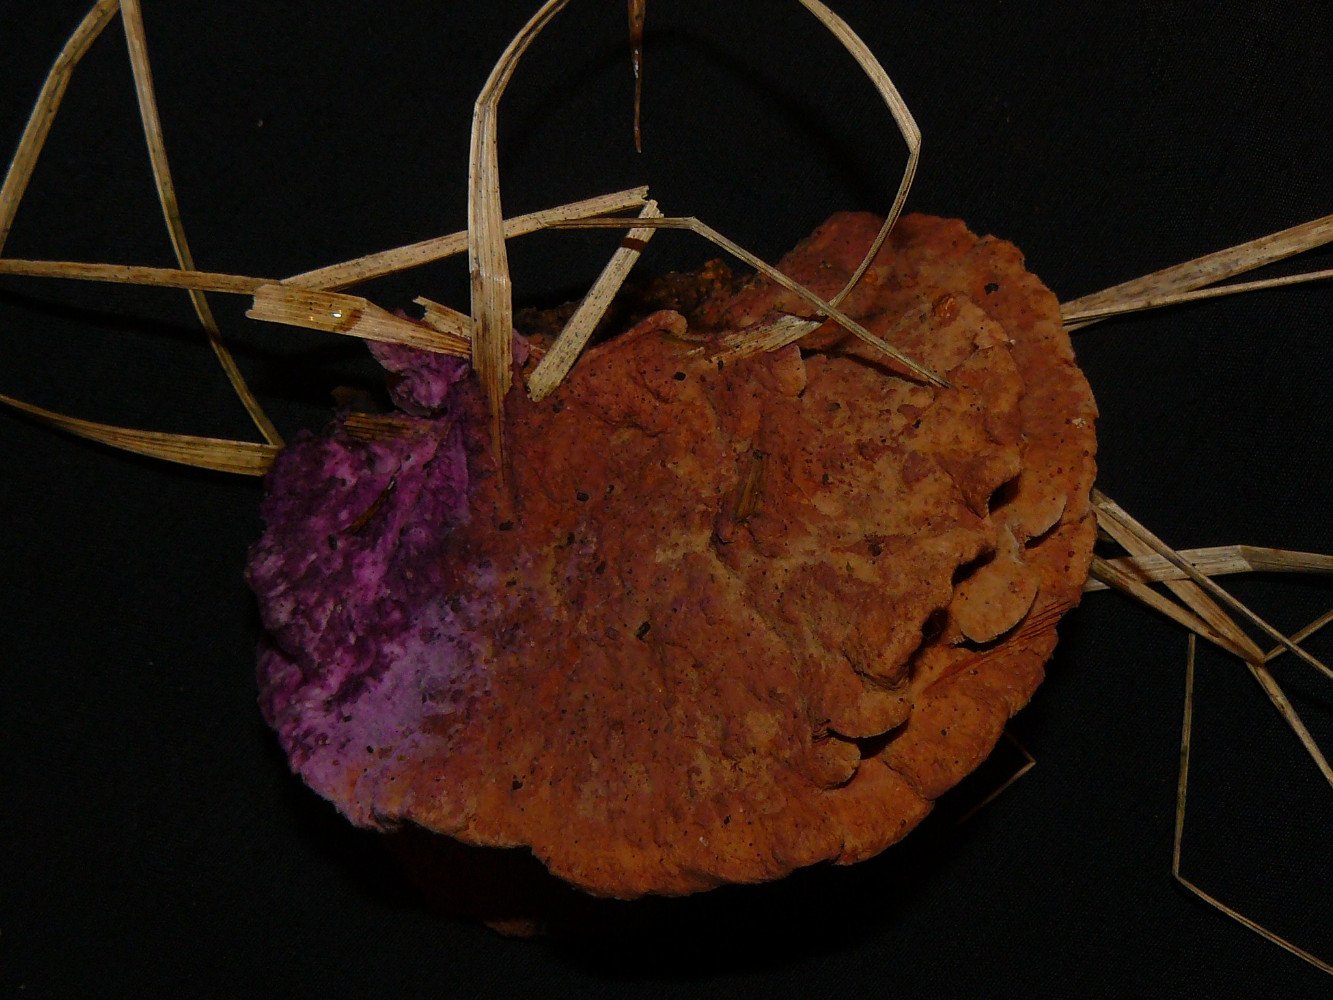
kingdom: Fungi
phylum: Basidiomycota
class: Agaricomycetes
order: Polyporales
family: Phanerochaetaceae
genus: Hapalopilus
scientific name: Hapalopilus rutilans
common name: rødlig okkerporesvamp
